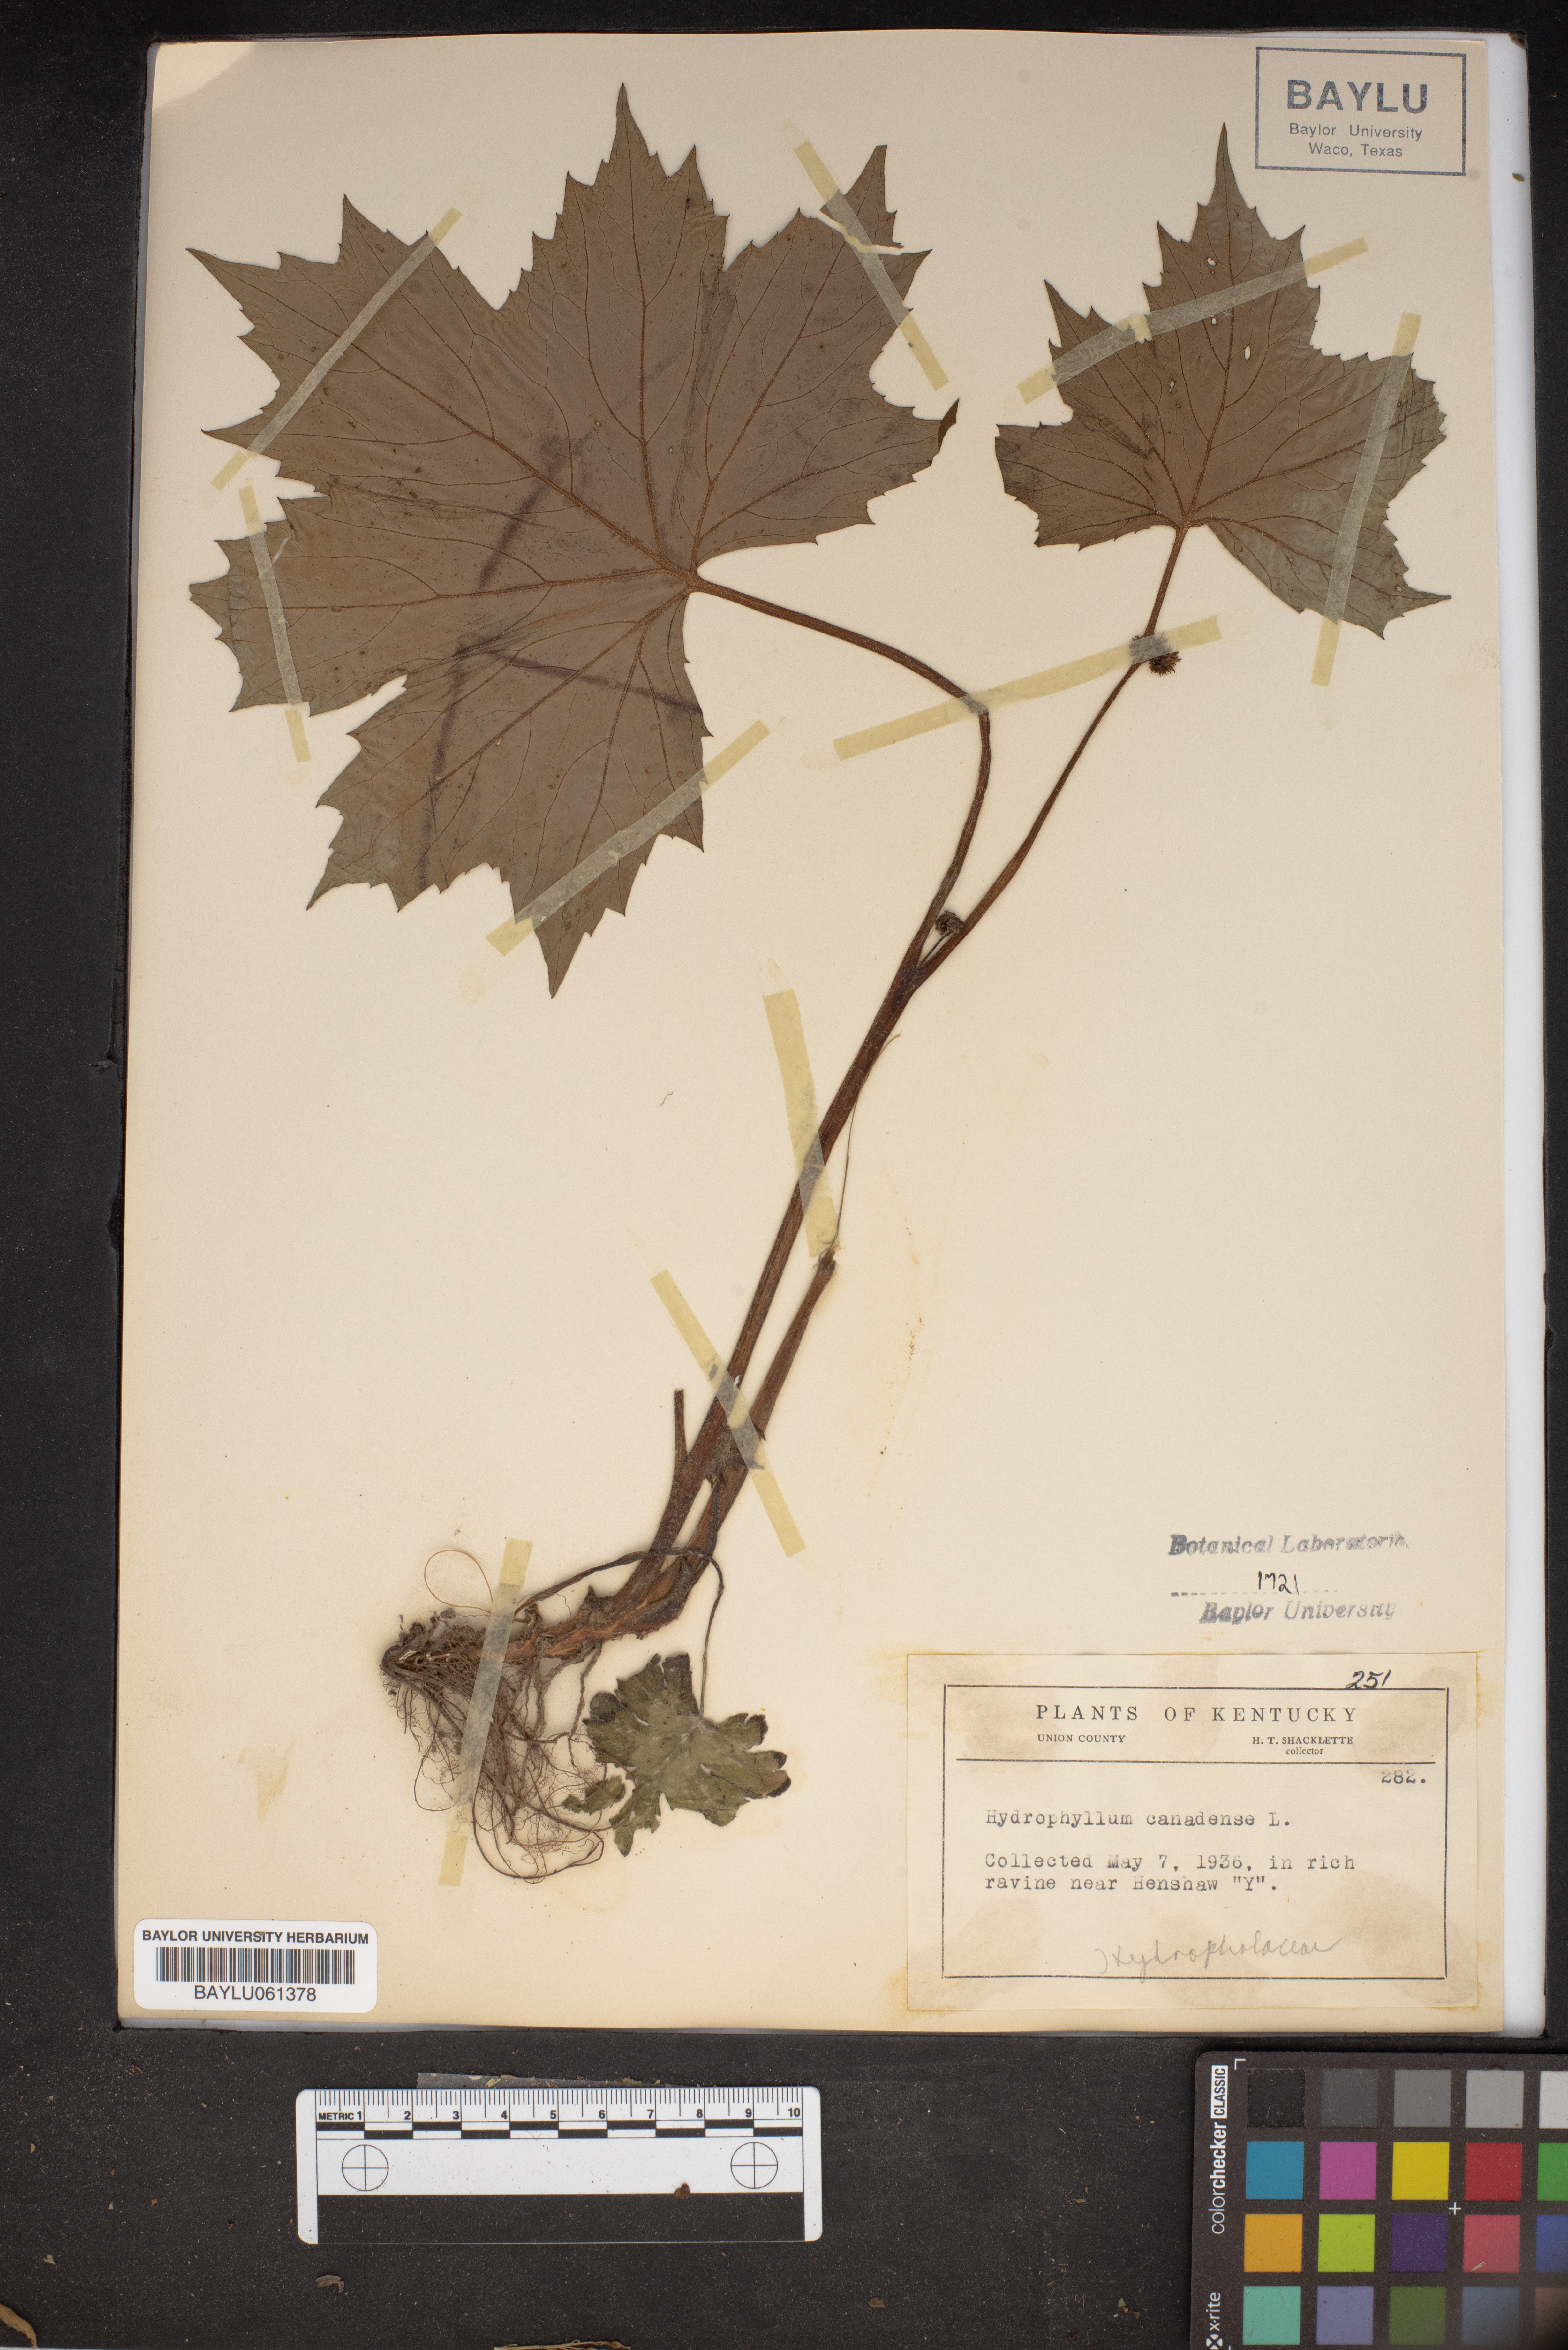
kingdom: Plantae
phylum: Tracheophyta
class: Magnoliopsida
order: Boraginales
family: Hydrophyllaceae
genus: Hydrophyllum
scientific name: Hydrophyllum canadense
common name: Canada waterleaf
